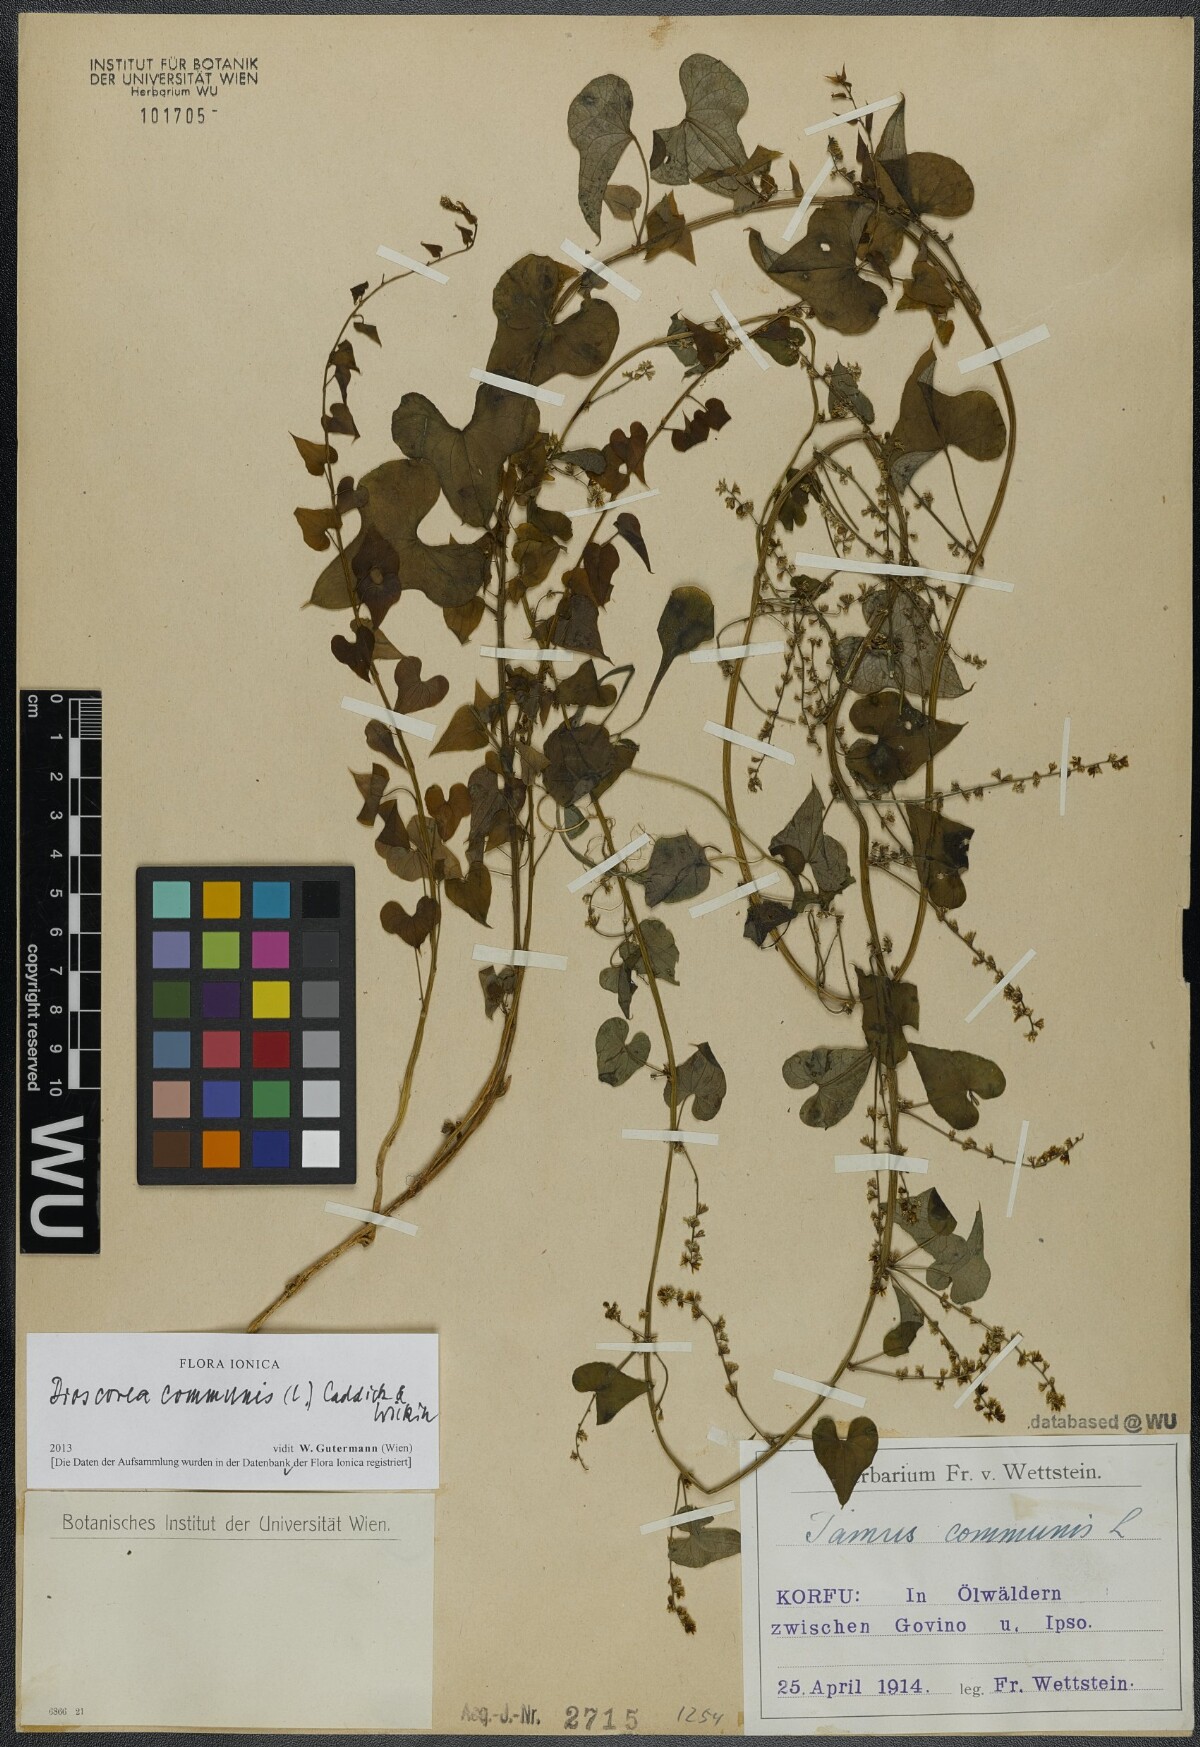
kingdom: Plantae
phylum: Tracheophyta
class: Liliopsida
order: Dioscoreales
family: Dioscoreaceae
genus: Dioscorea
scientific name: Dioscorea communis
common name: Black-bindweed
